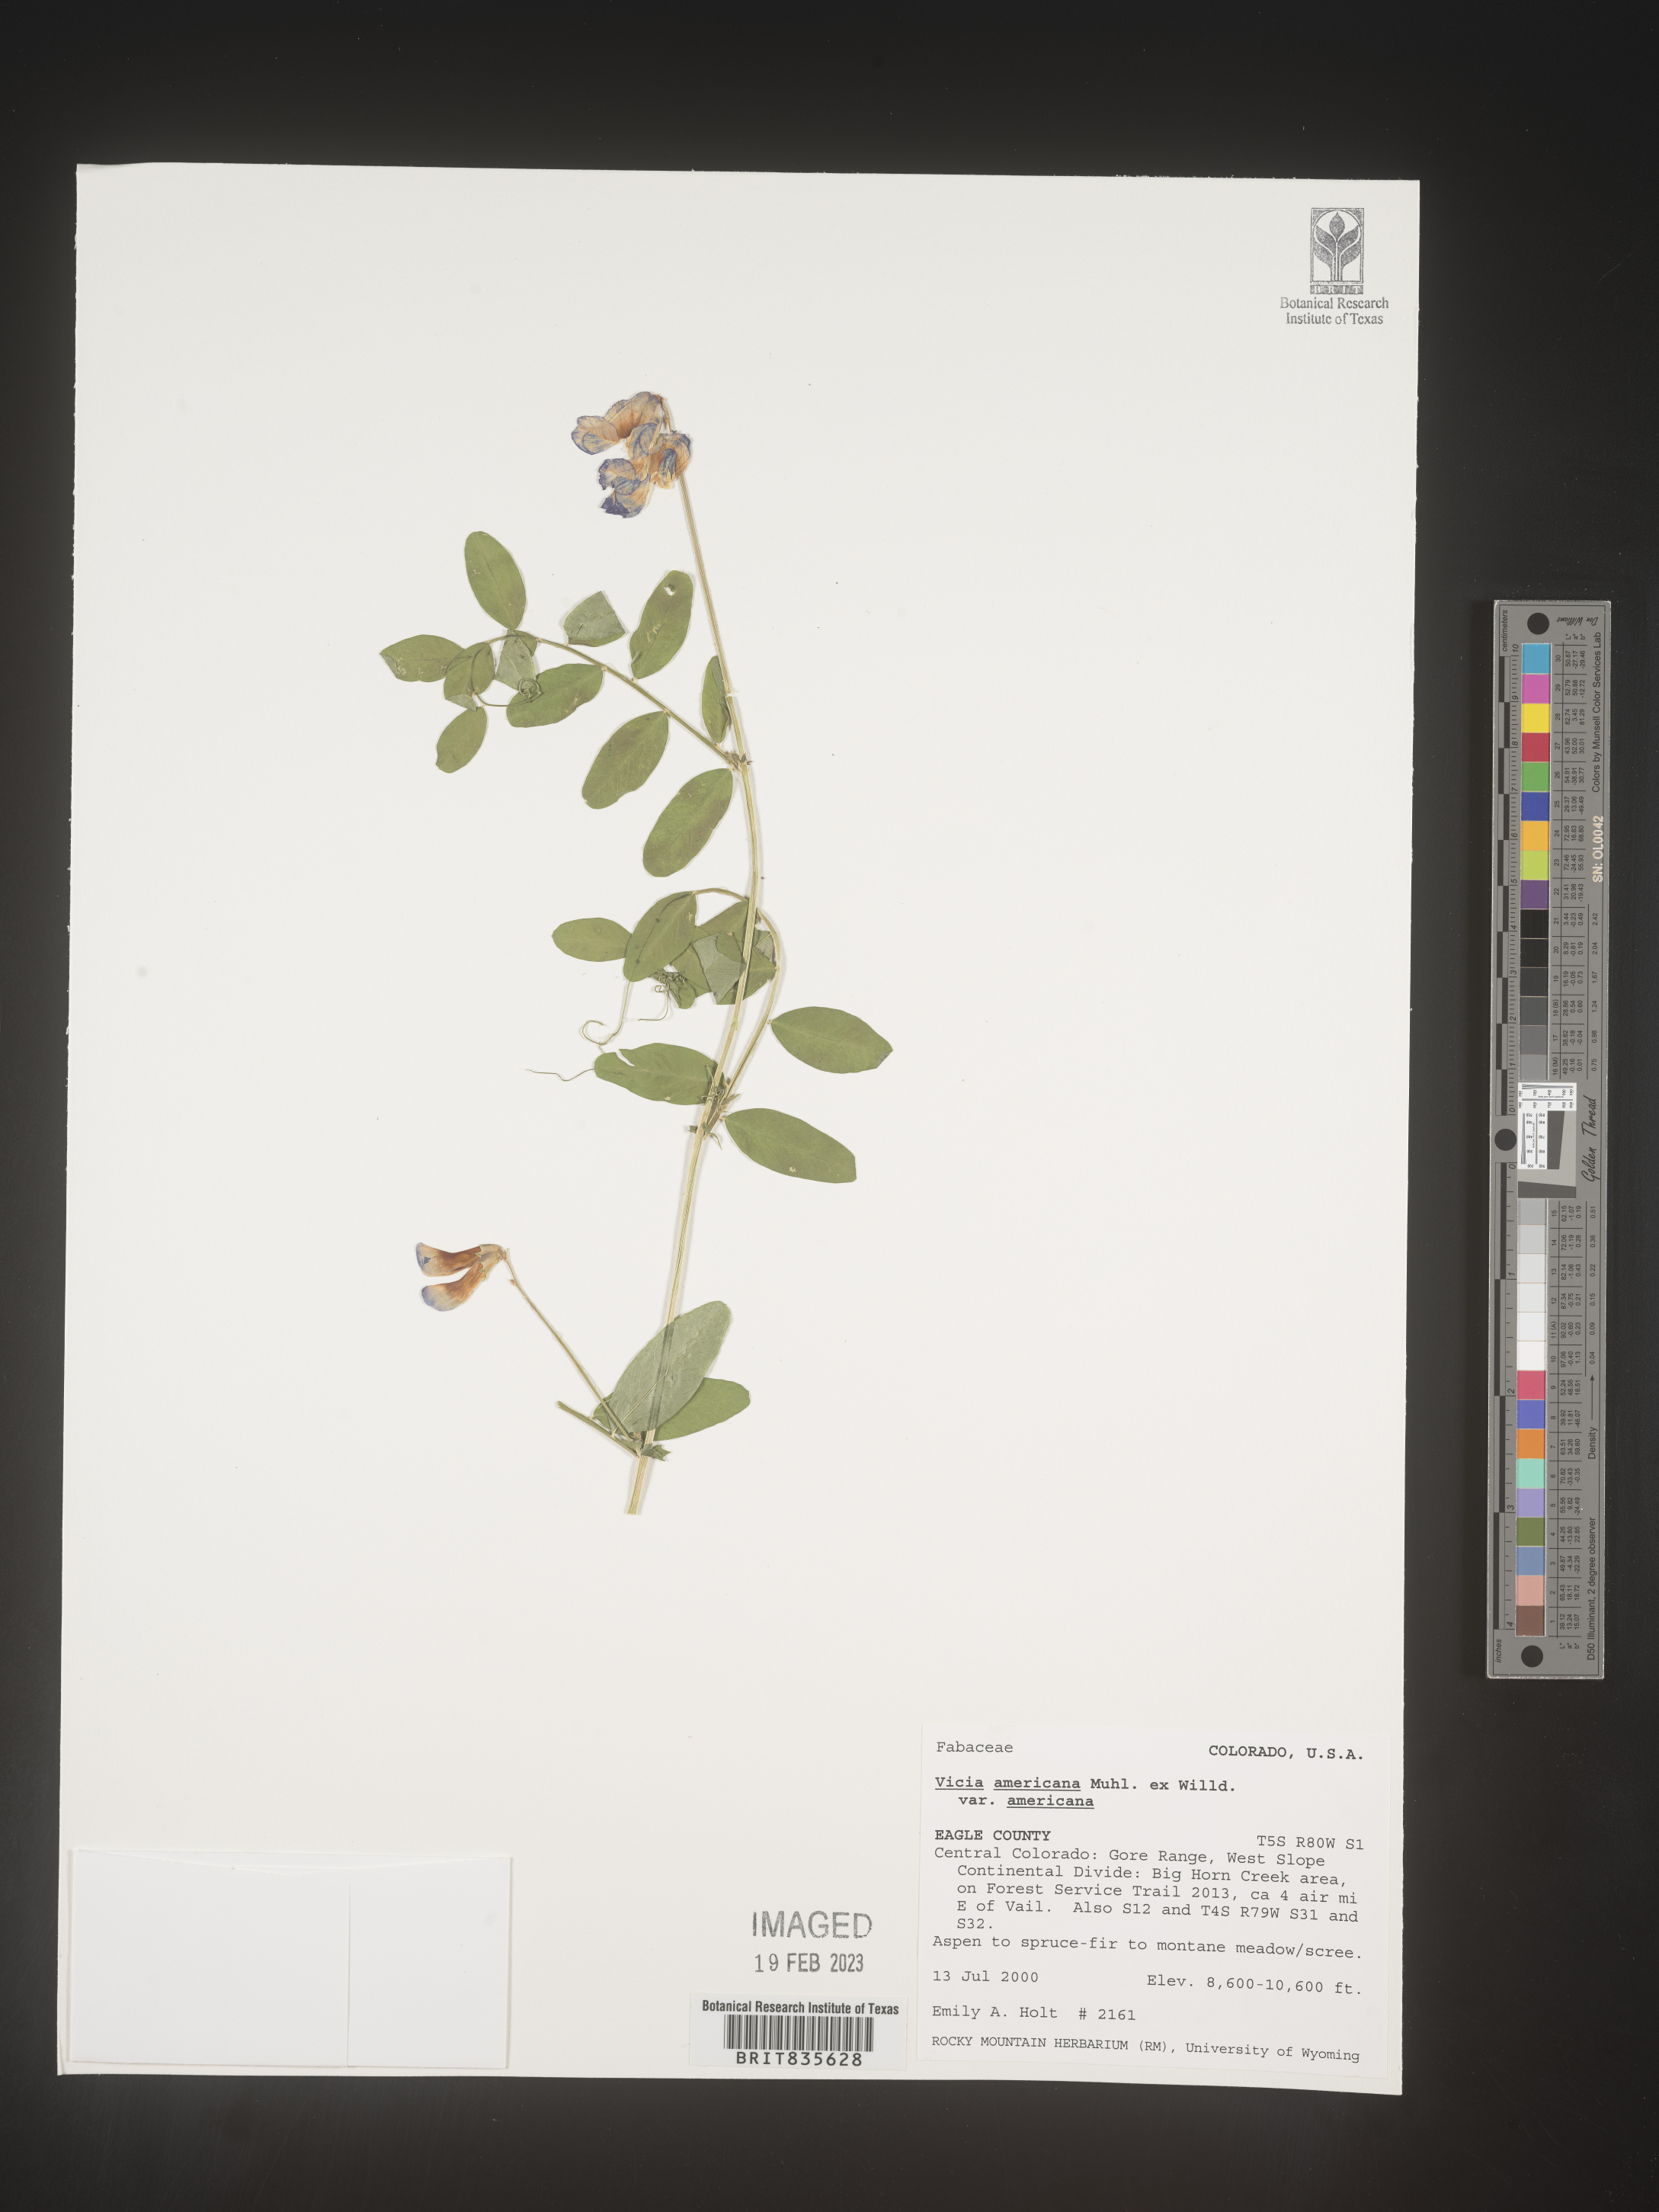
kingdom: Plantae
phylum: Tracheophyta
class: Magnoliopsida
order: Fabales
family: Fabaceae
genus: Vicia
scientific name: Vicia americana
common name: American vetch
